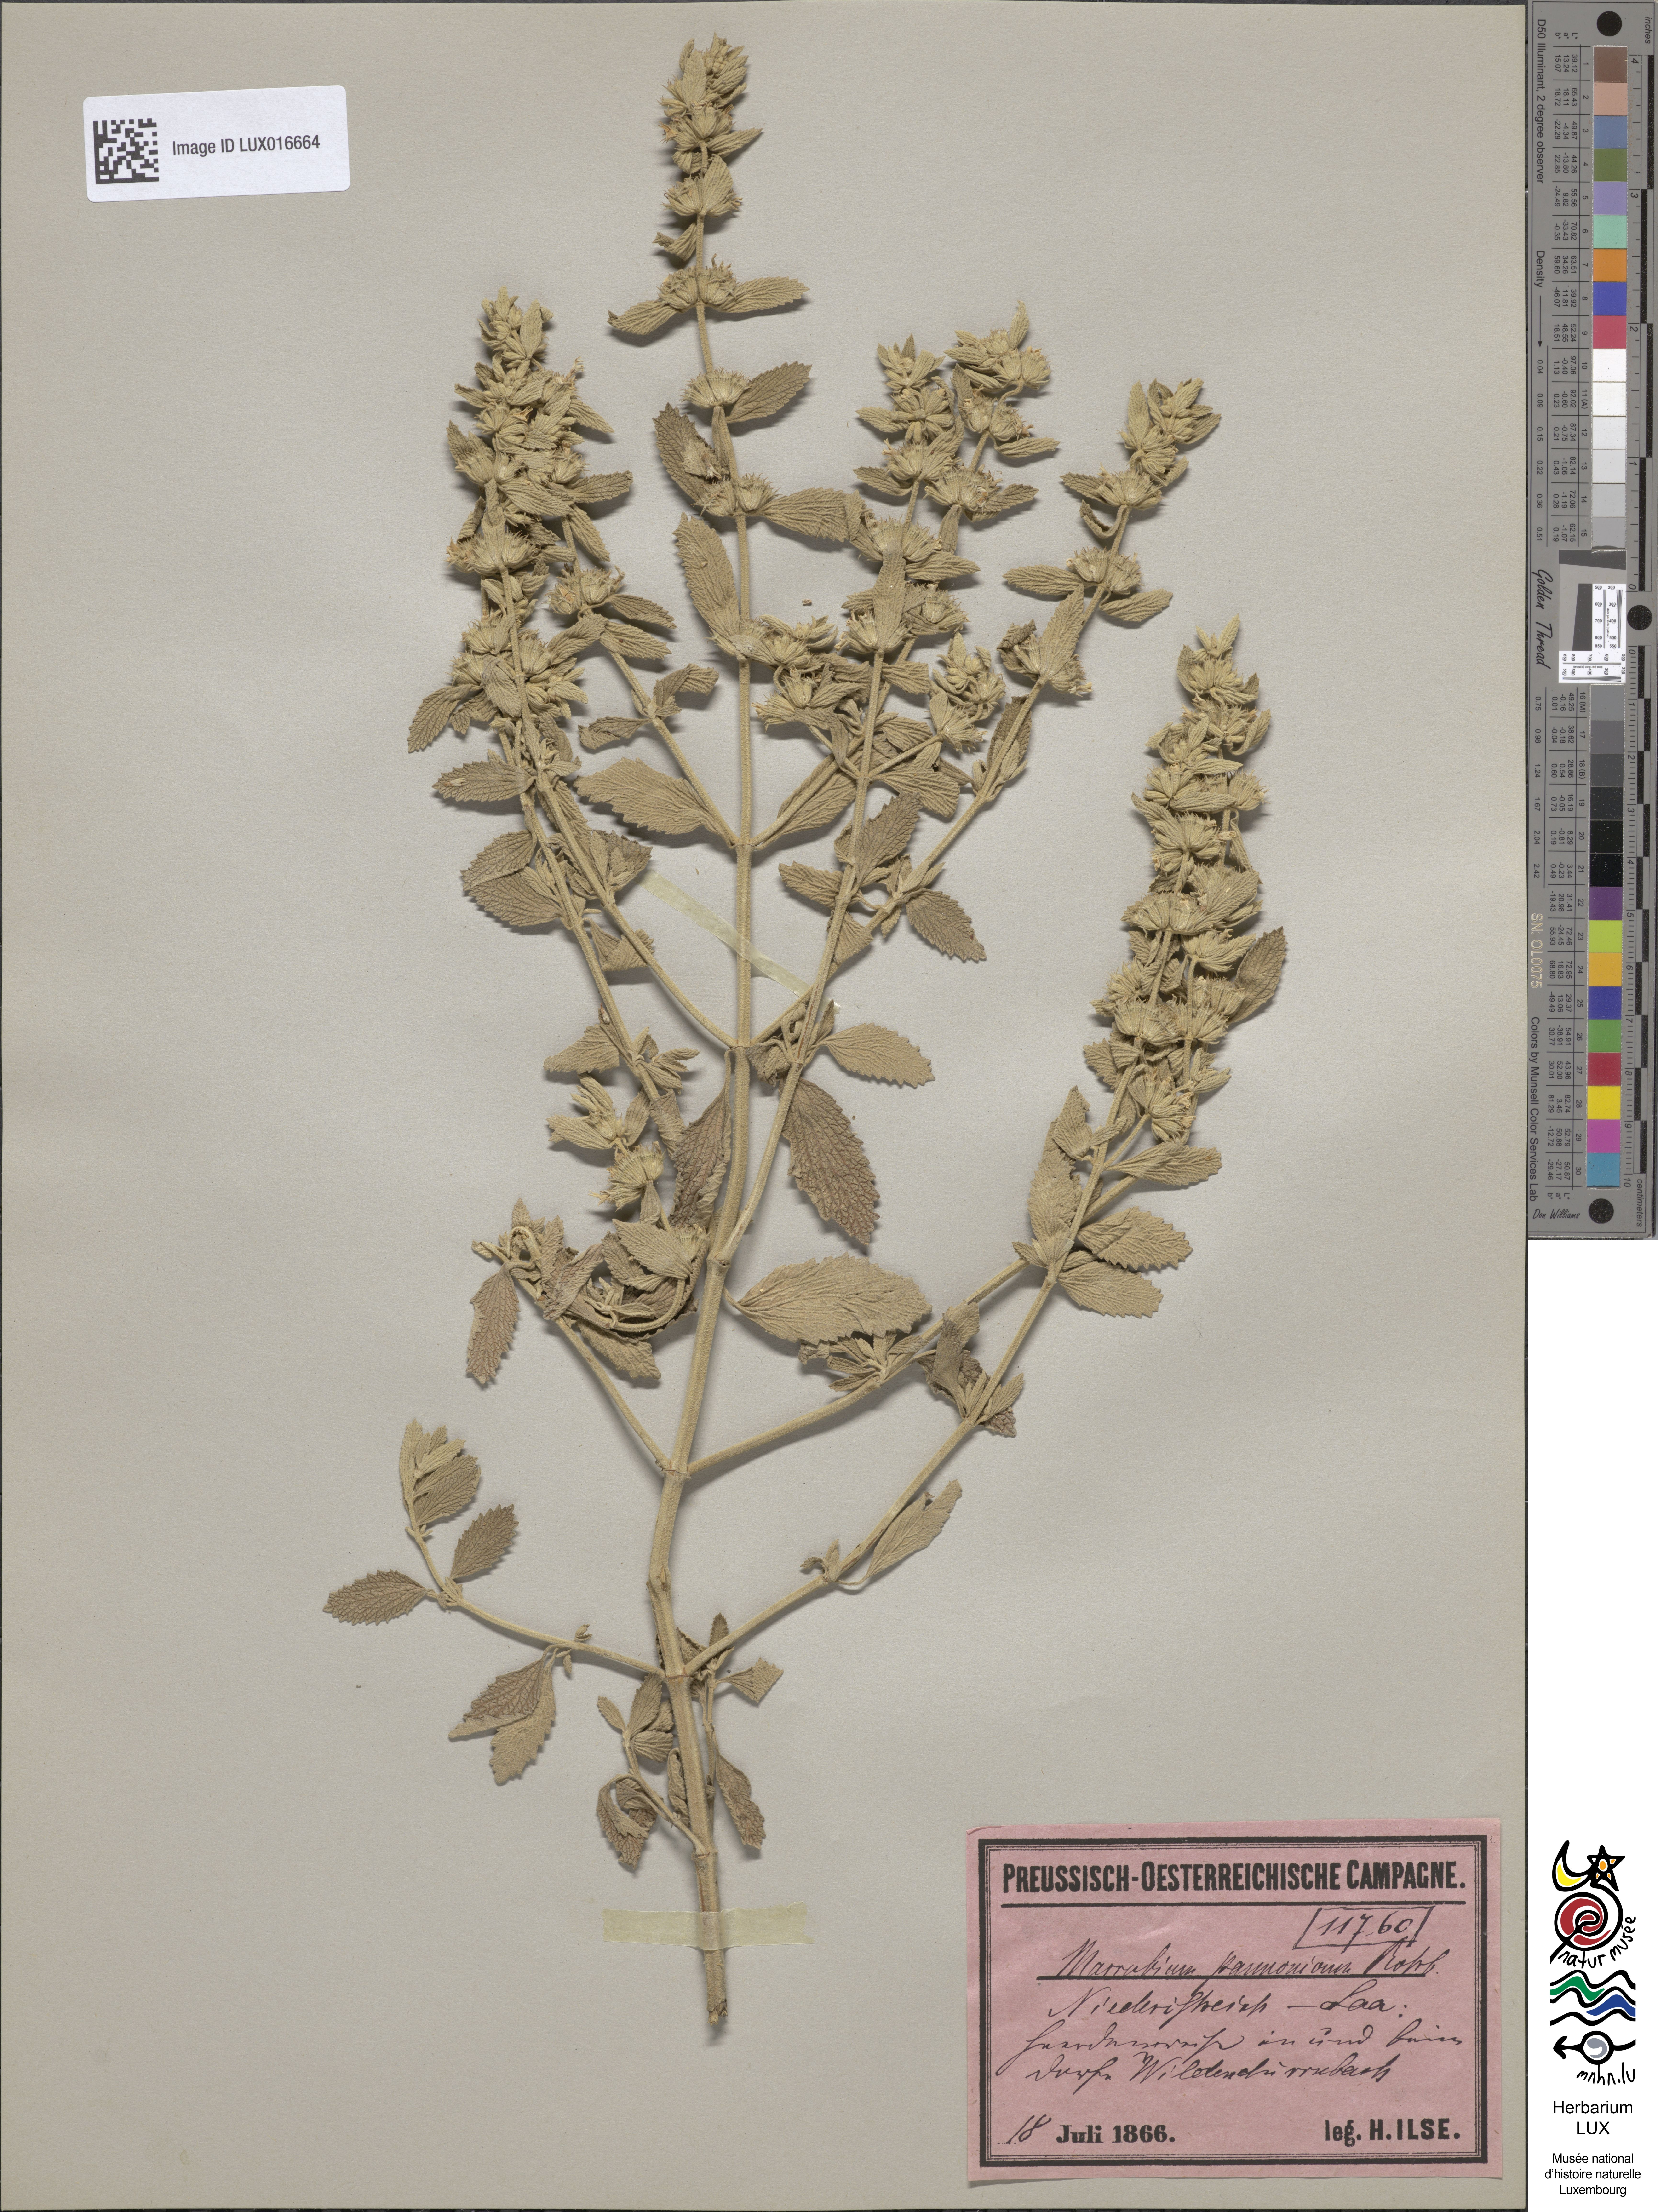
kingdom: Plantae
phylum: Tracheophyta
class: Magnoliopsida
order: Lamiales
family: Lamiaceae
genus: Marrubium
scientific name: Marrubium peregrinum
